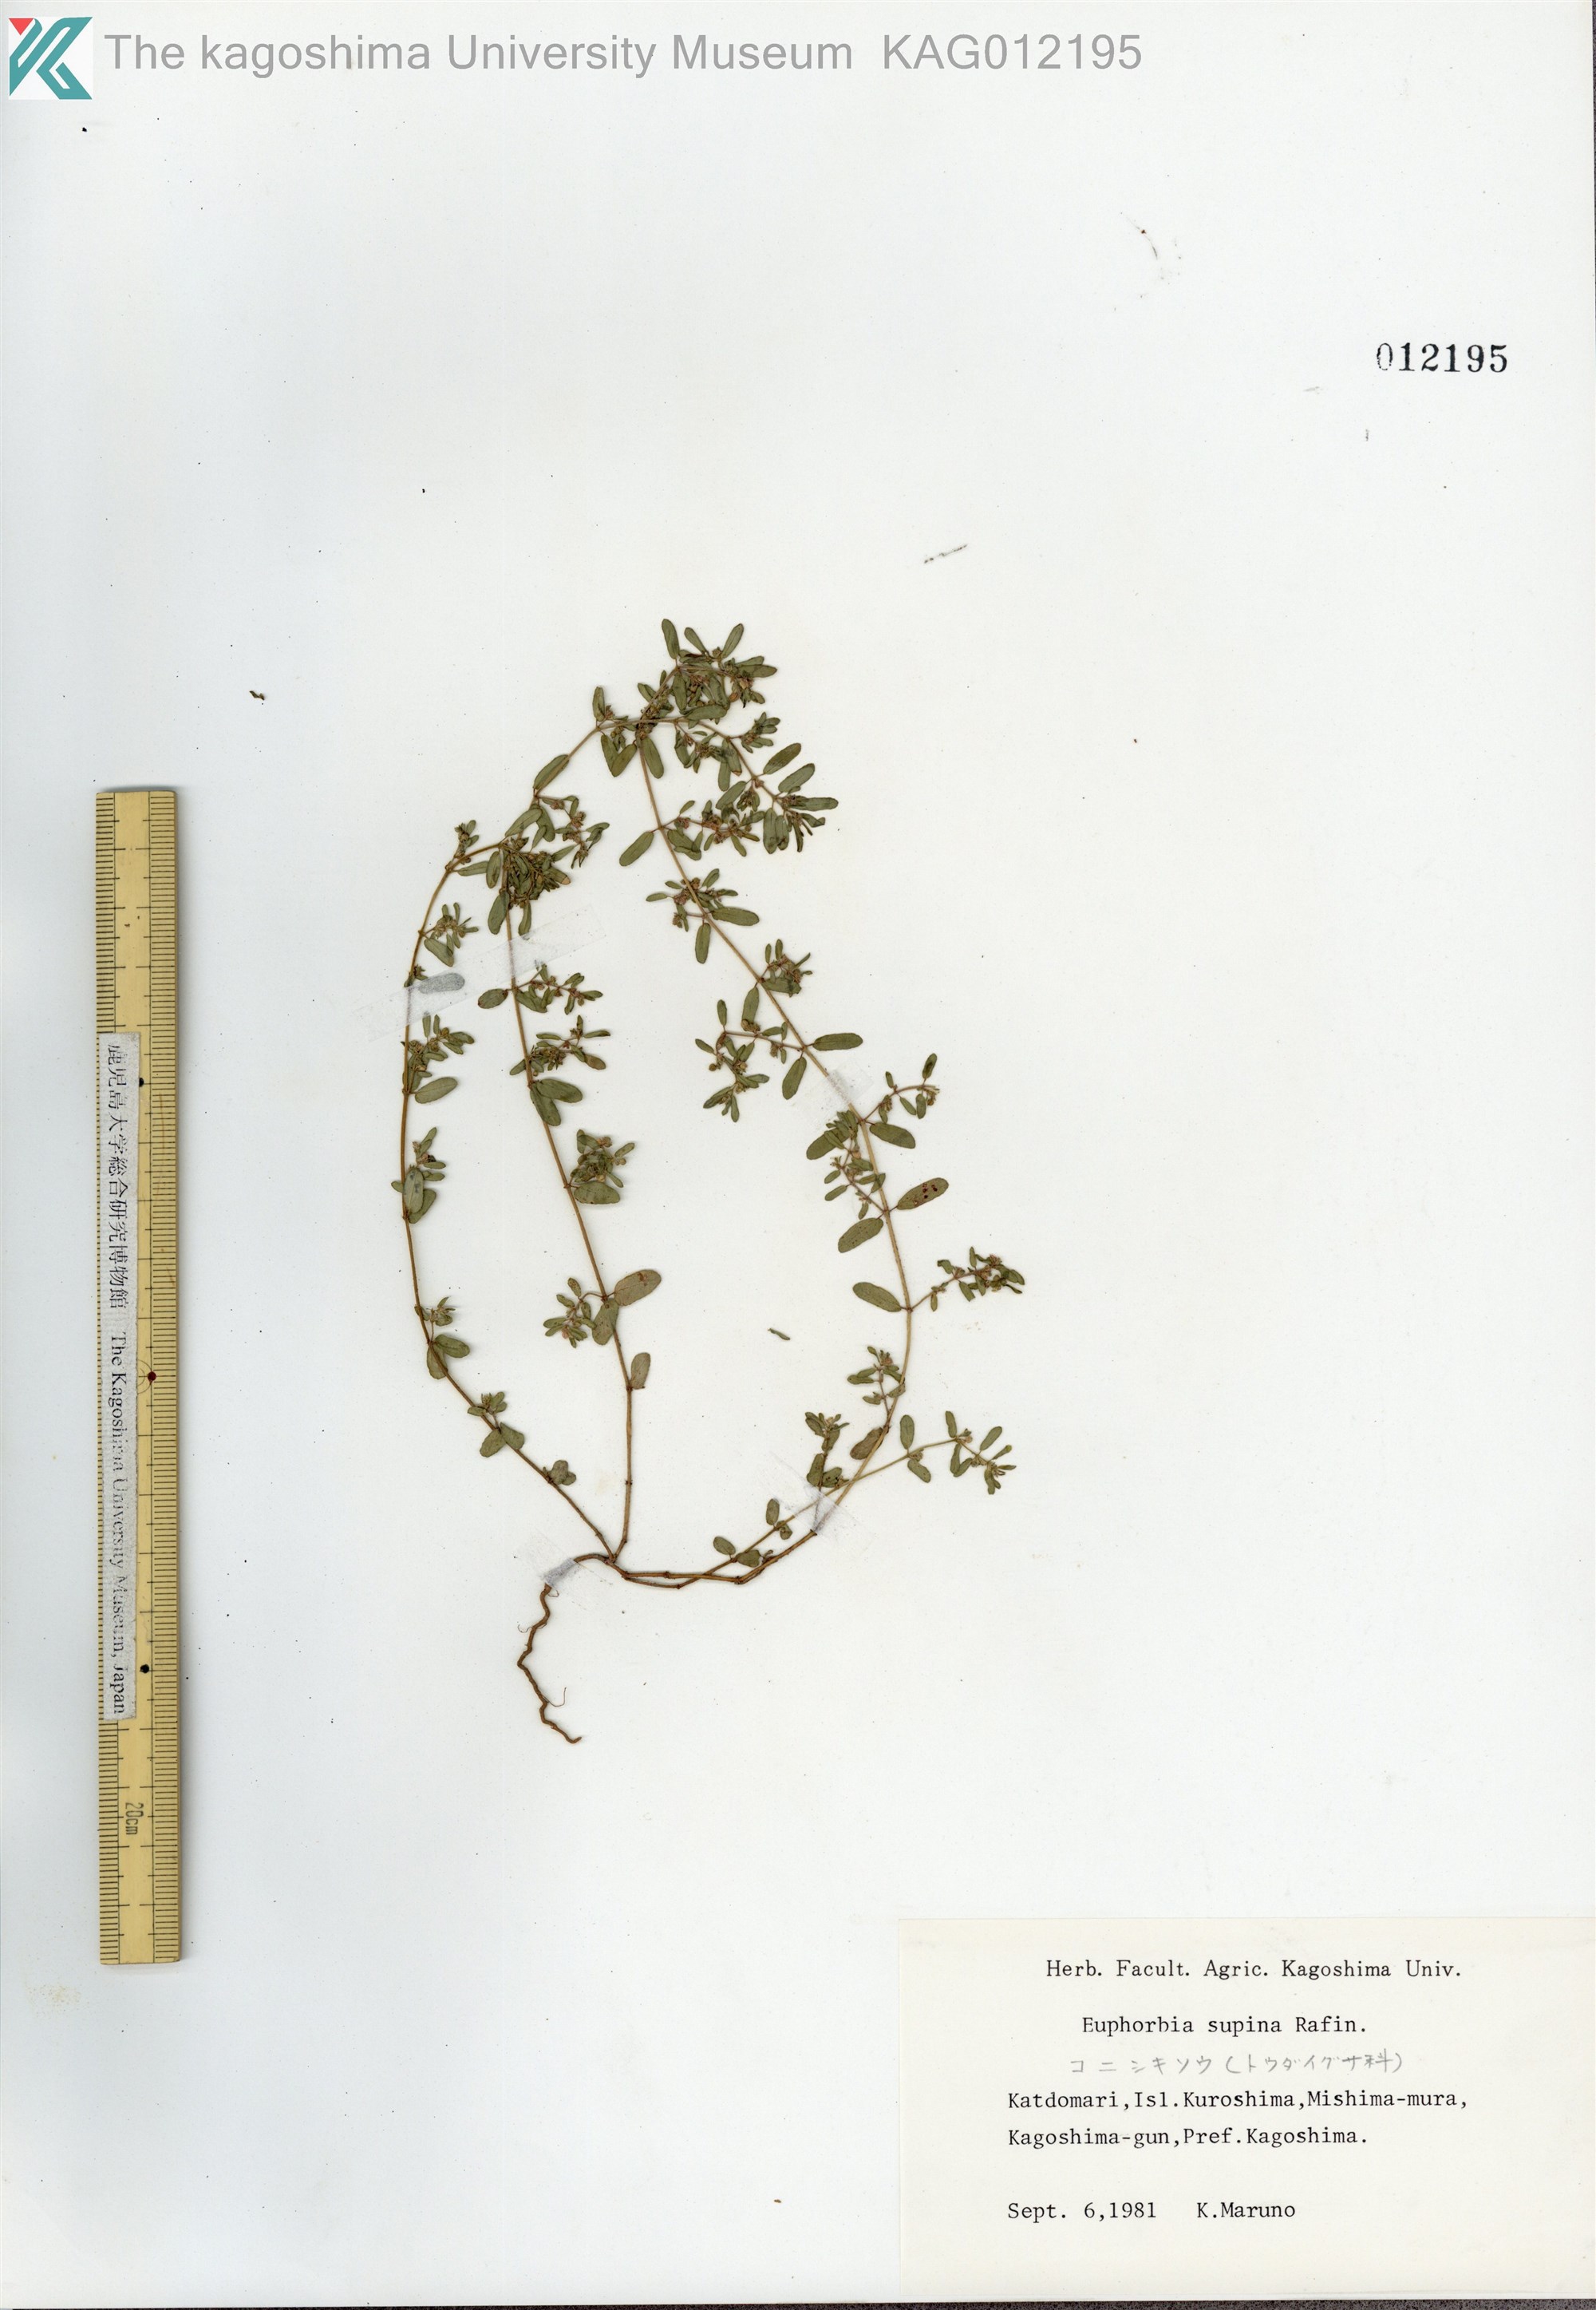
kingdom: Plantae
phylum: Tracheophyta
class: Magnoliopsida
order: Malpighiales
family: Euphorbiaceae
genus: Euphorbia
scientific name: Euphorbia maculata
